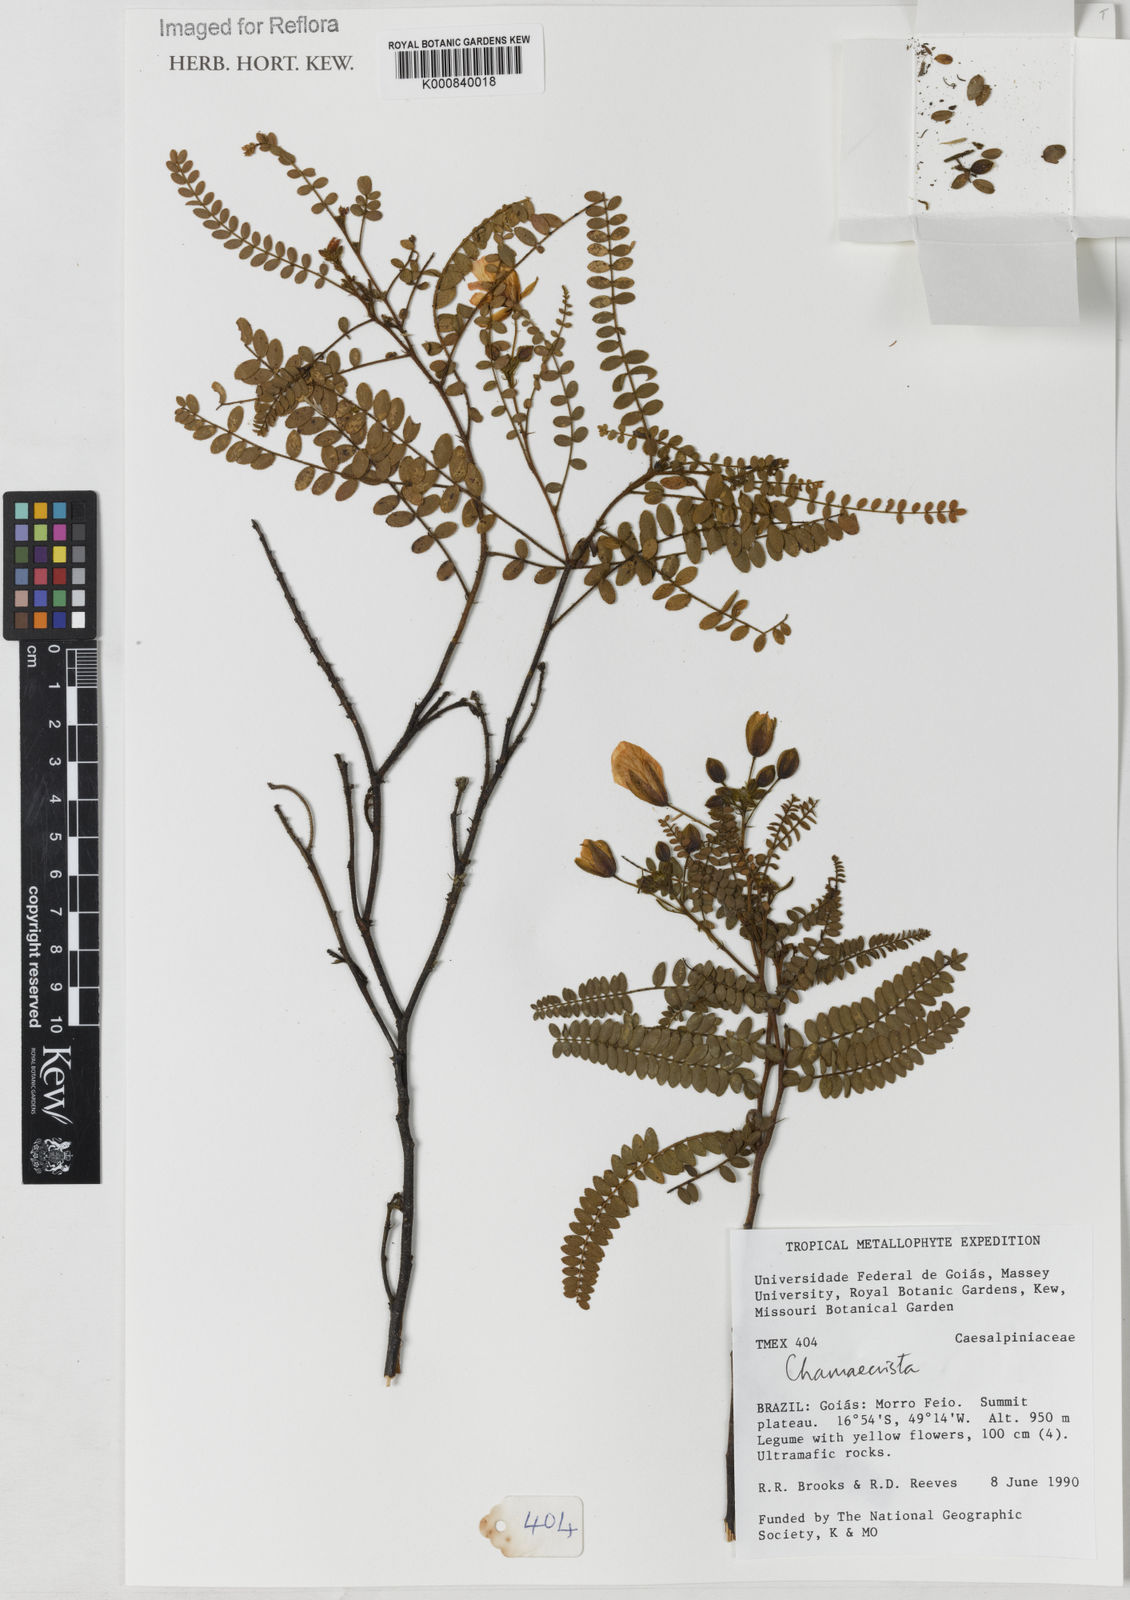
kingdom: Plantae
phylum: Tracheophyta
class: Magnoliopsida
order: Fabales
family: Fabaceae
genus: Chamaecrista
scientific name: Chamaecrista nanodes
